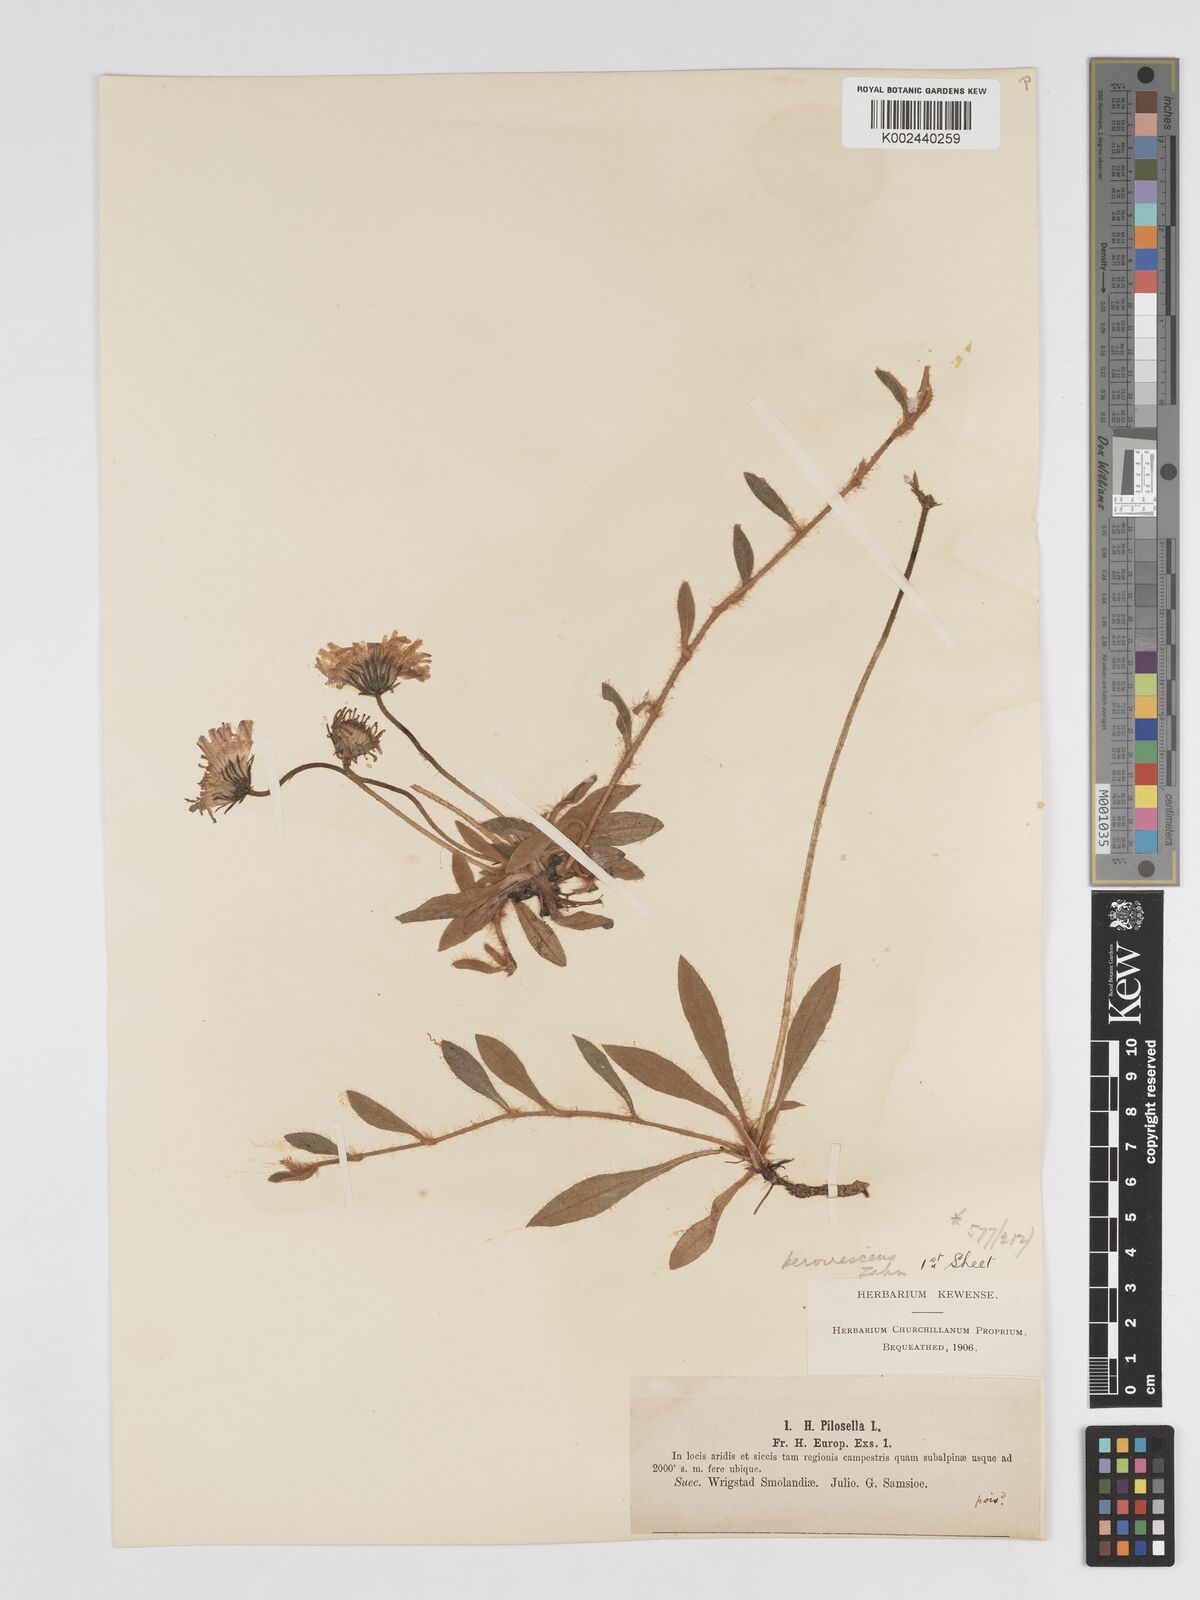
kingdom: Plantae
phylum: Tracheophyta
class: Magnoliopsida
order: Asterales
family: Asteraceae
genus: Pilosella
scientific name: Pilosella officinarum
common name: Mouse-ear hawkweed
